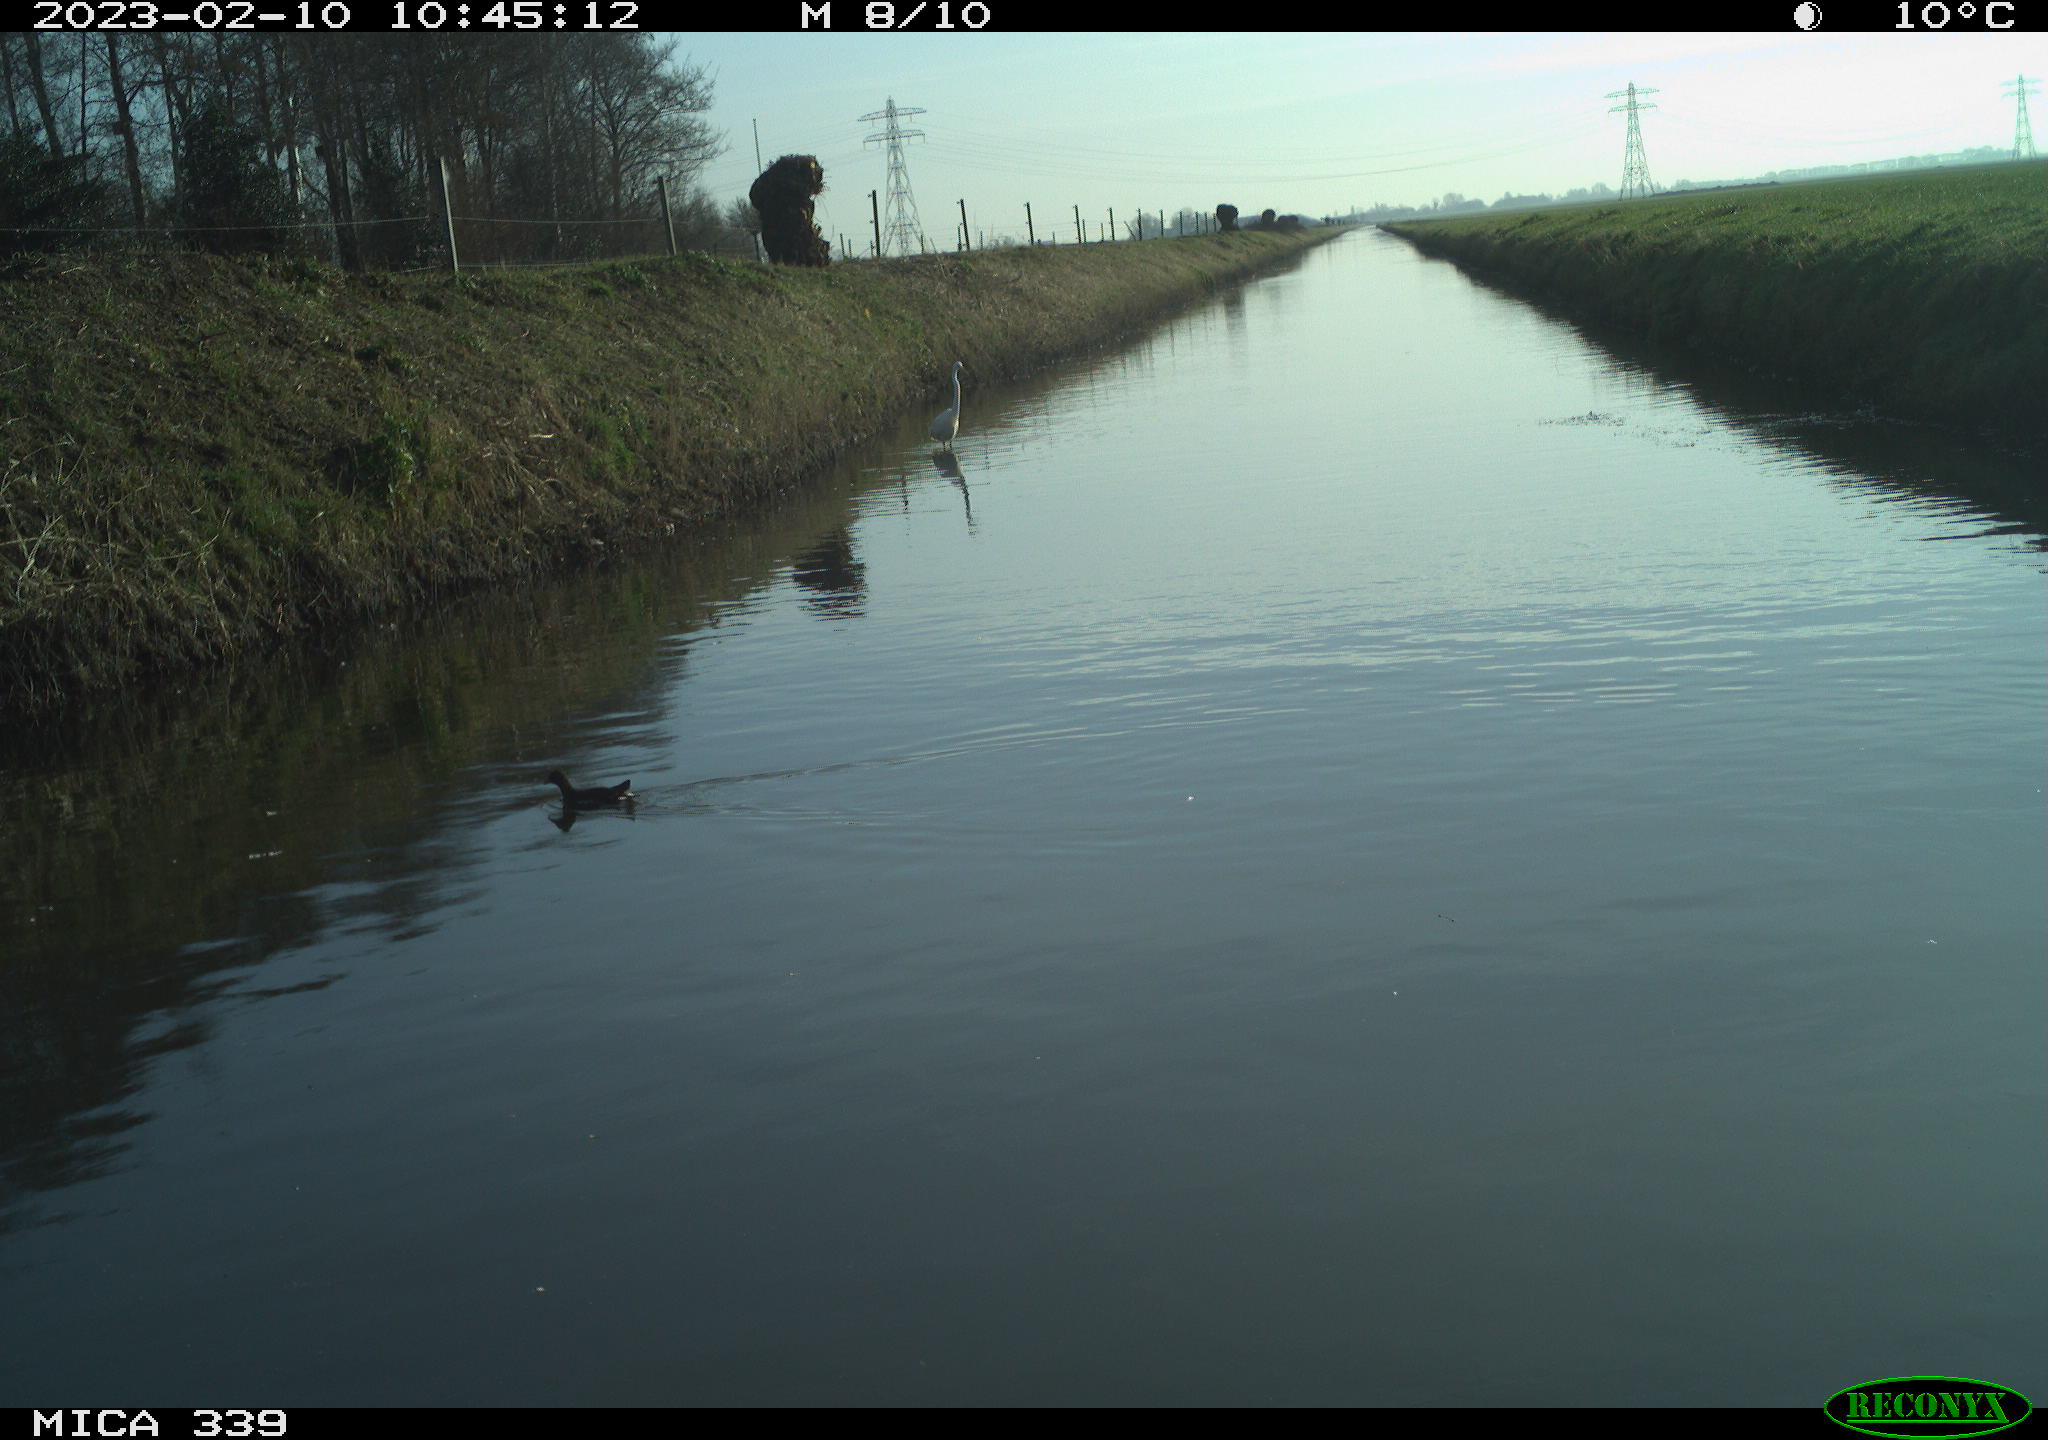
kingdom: Animalia
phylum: Chordata
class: Aves
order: Gruiformes
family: Rallidae
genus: Gallinula
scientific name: Gallinula chloropus
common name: Common moorhen
